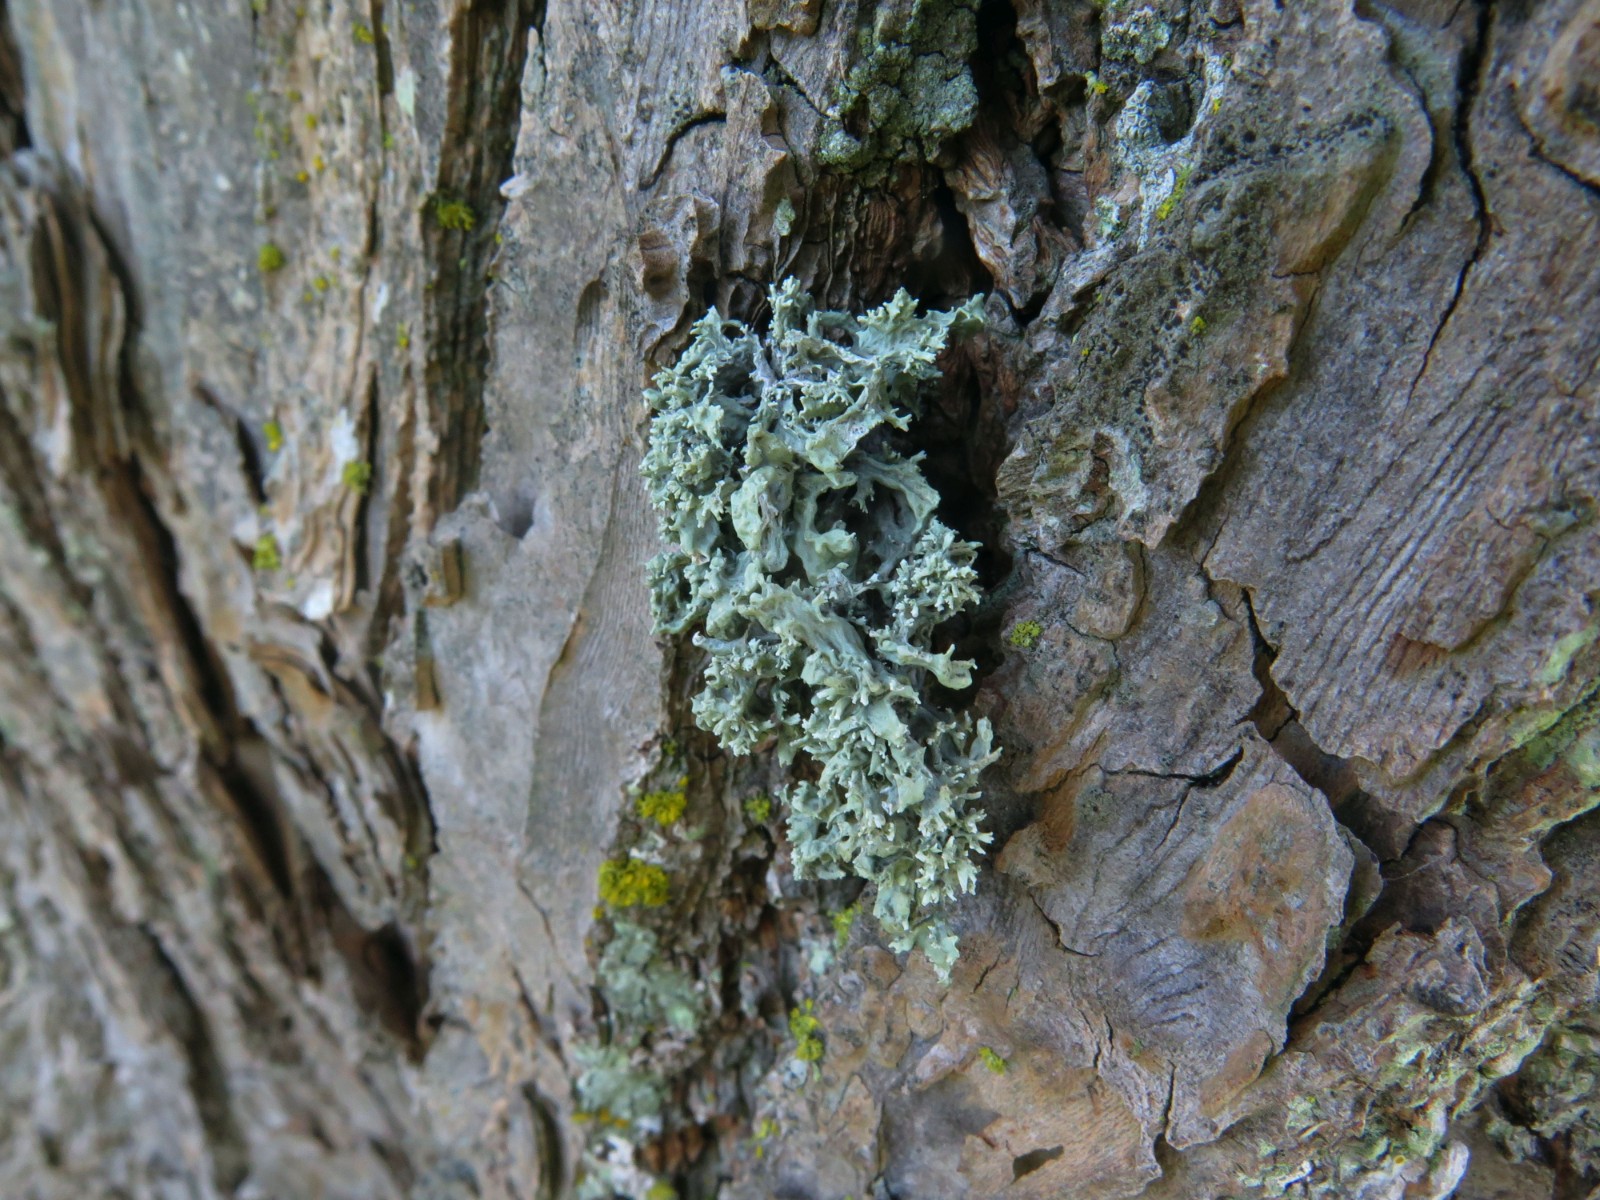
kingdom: Fungi
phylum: Ascomycota
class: Lecanoromycetes
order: Lecanorales
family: Parmeliaceae
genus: Evernia
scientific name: Evernia prunastri
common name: almindelig slåenlav
